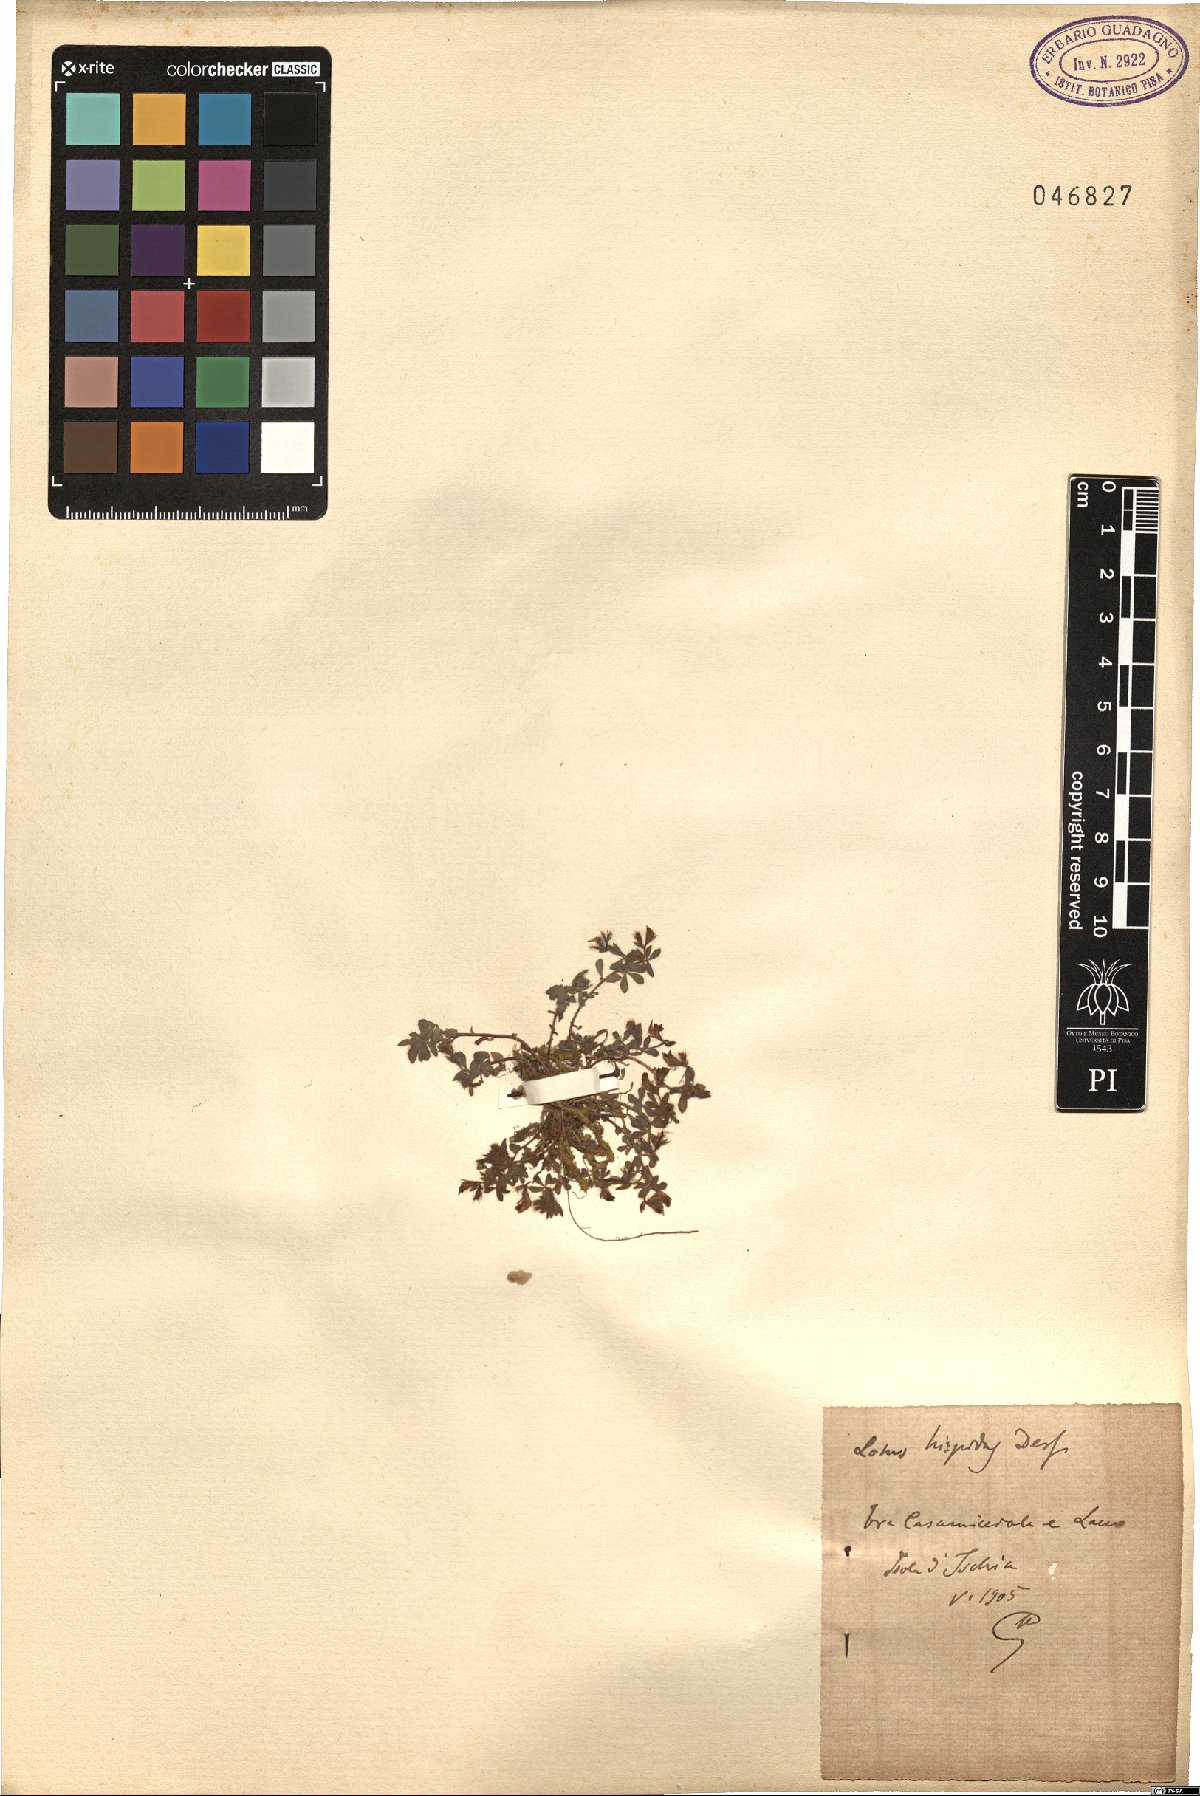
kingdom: Plantae
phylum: Tracheophyta
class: Magnoliopsida
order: Fabales
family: Fabaceae
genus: Lotus
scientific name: Lotus parviflorus
